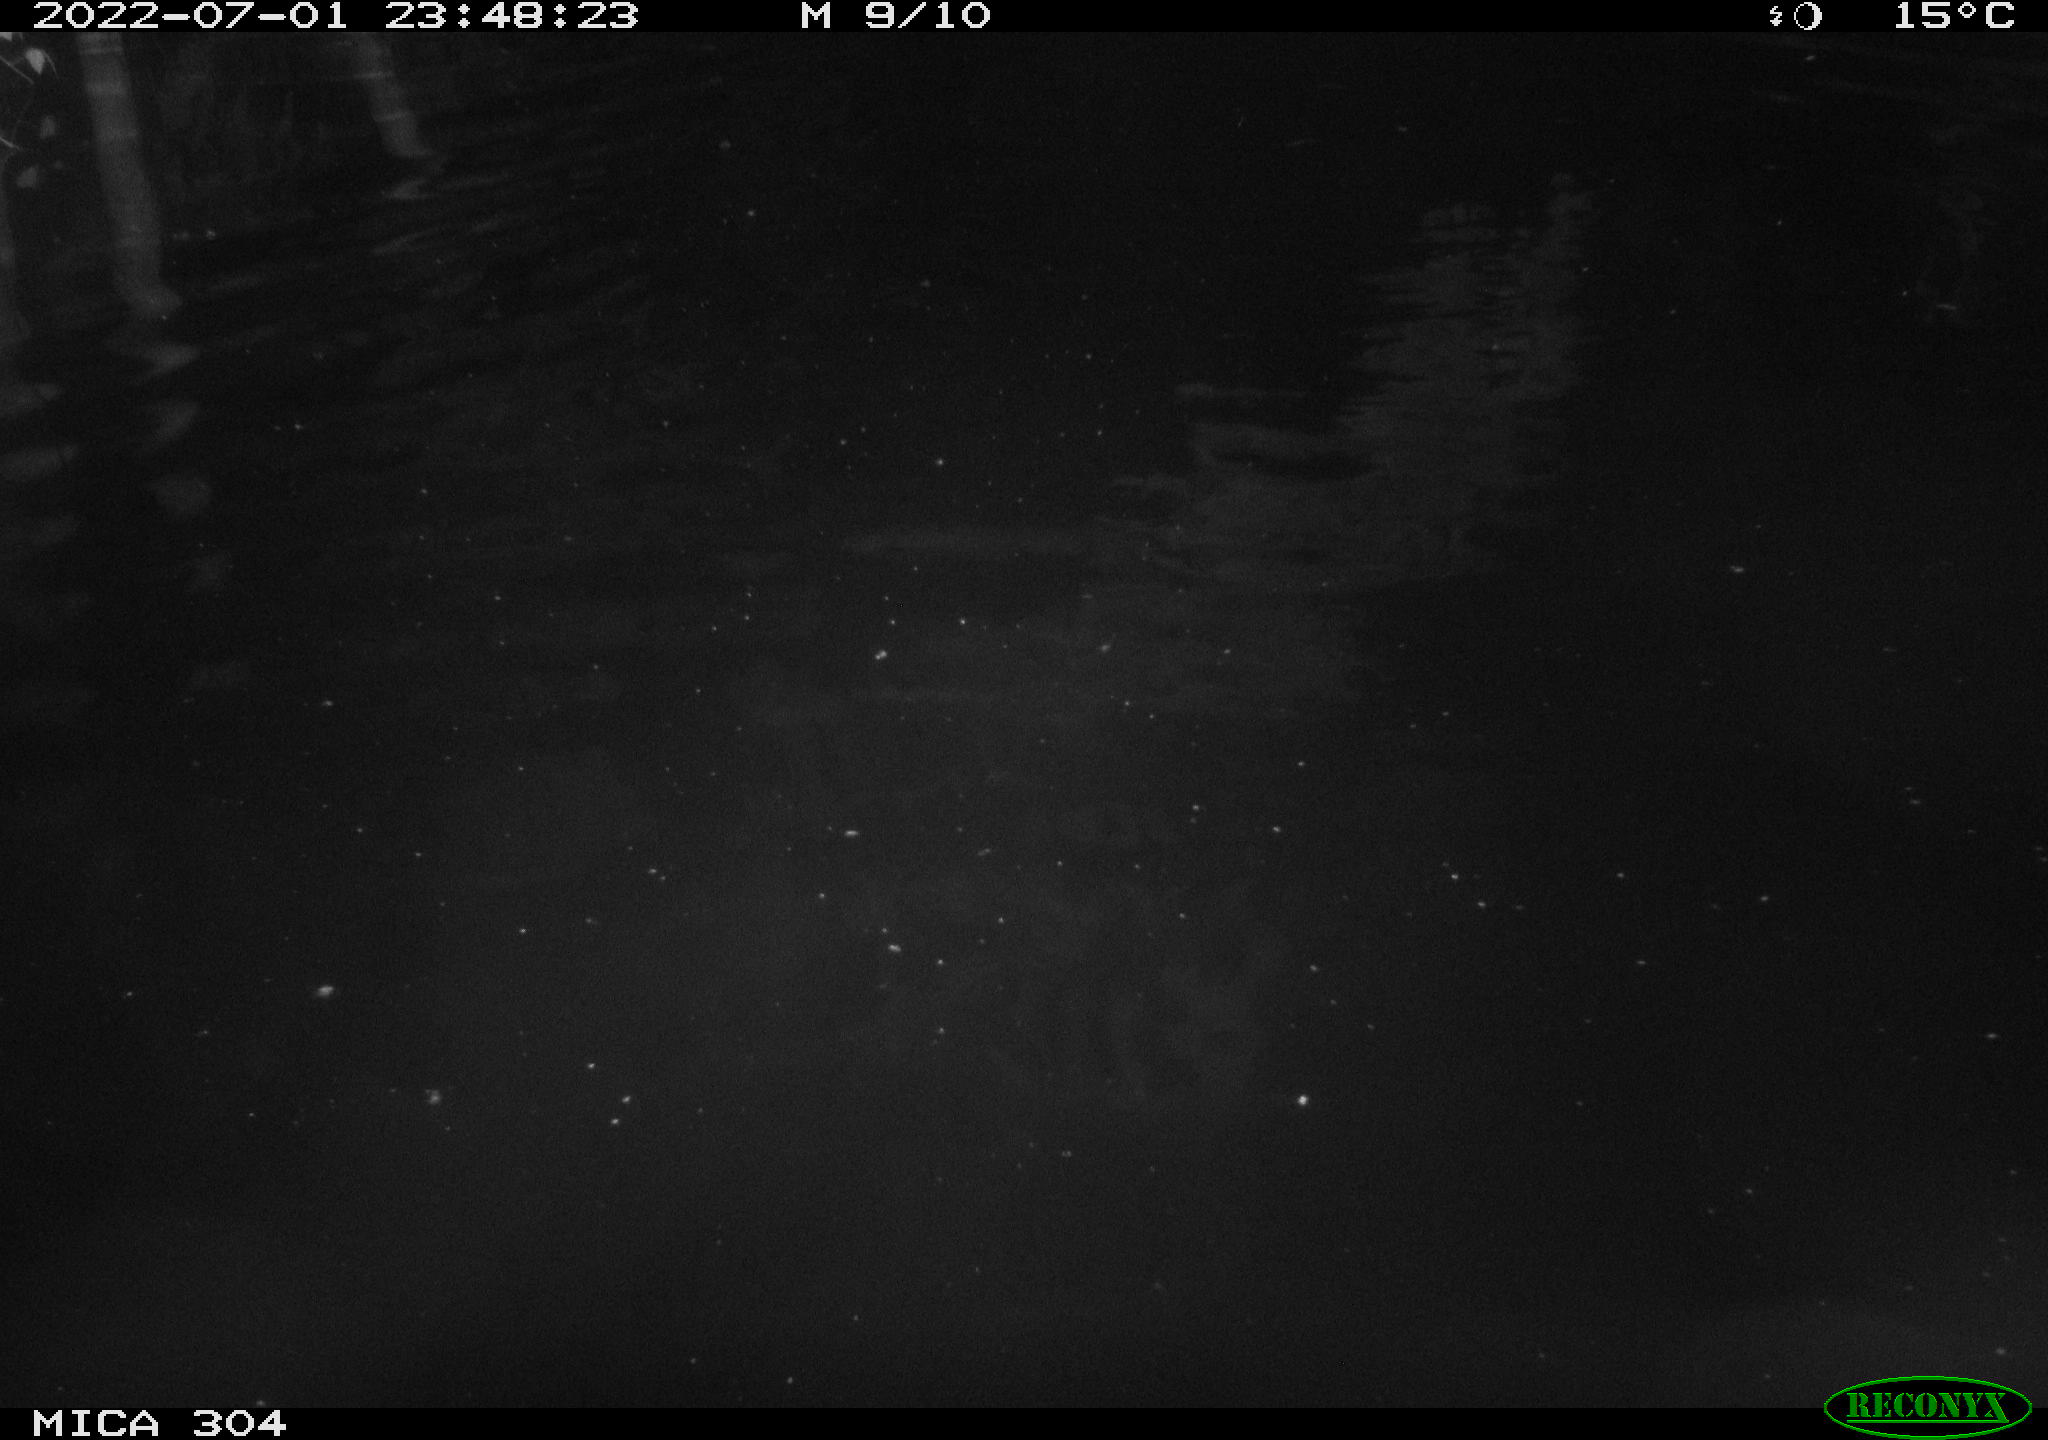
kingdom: Animalia
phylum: Chordata
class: Mammalia
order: Rodentia
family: Cricetidae
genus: Ondatra
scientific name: Ondatra zibethicus
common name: Muskrat
